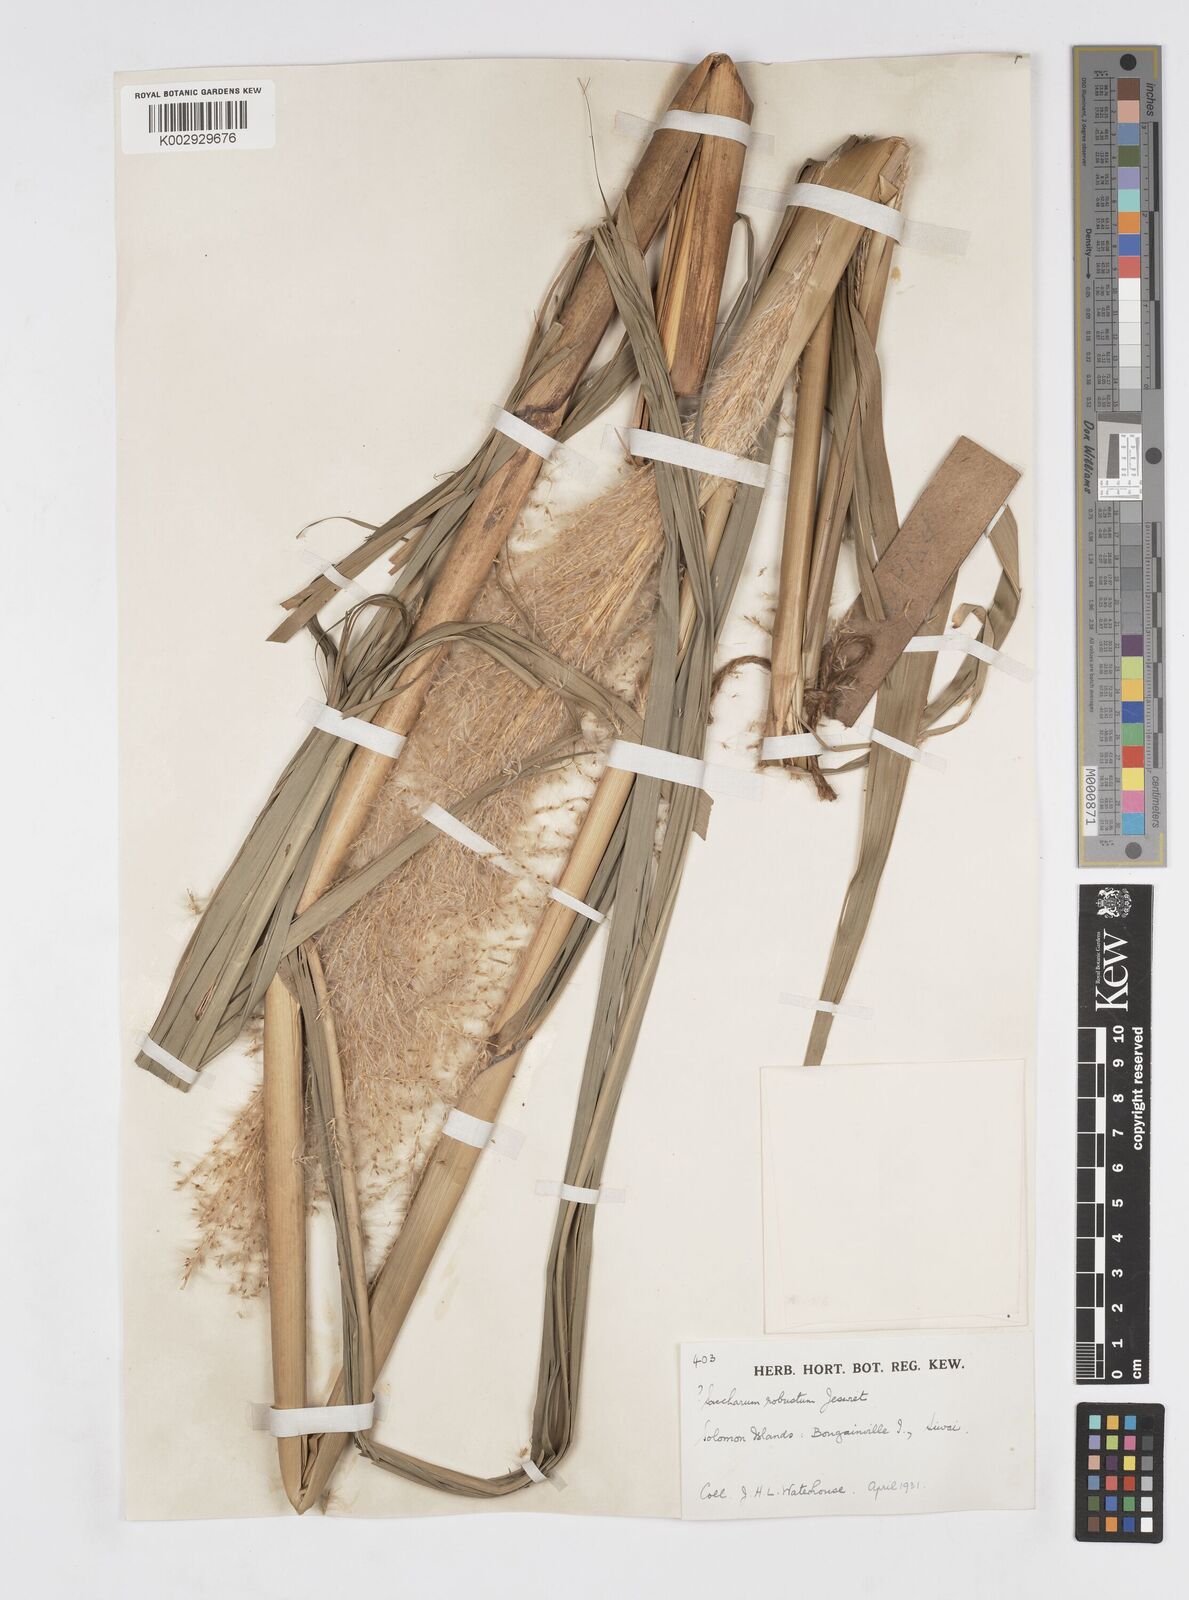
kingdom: Plantae
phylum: Tracheophyta
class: Liliopsida
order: Poales
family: Poaceae
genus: Saccharum
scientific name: Saccharum robustum
